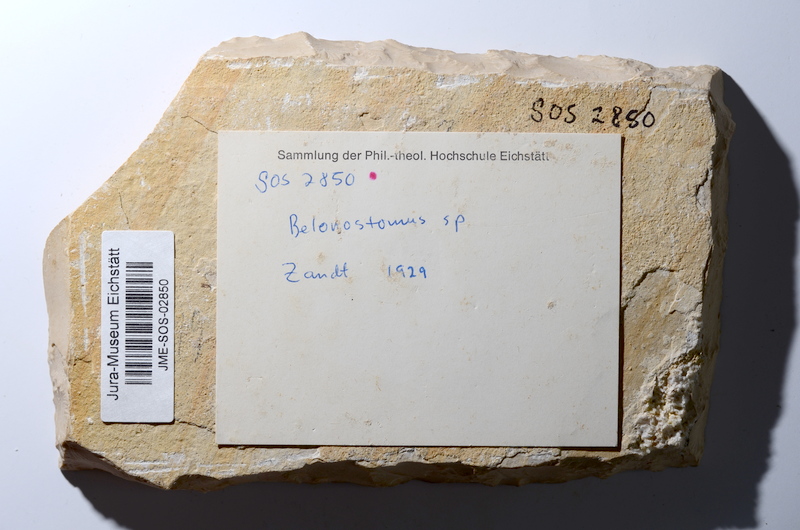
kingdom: Animalia
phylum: Chordata
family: Aspidorhynchidae
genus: Belonostomus
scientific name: Belonostomus tenuirostris
